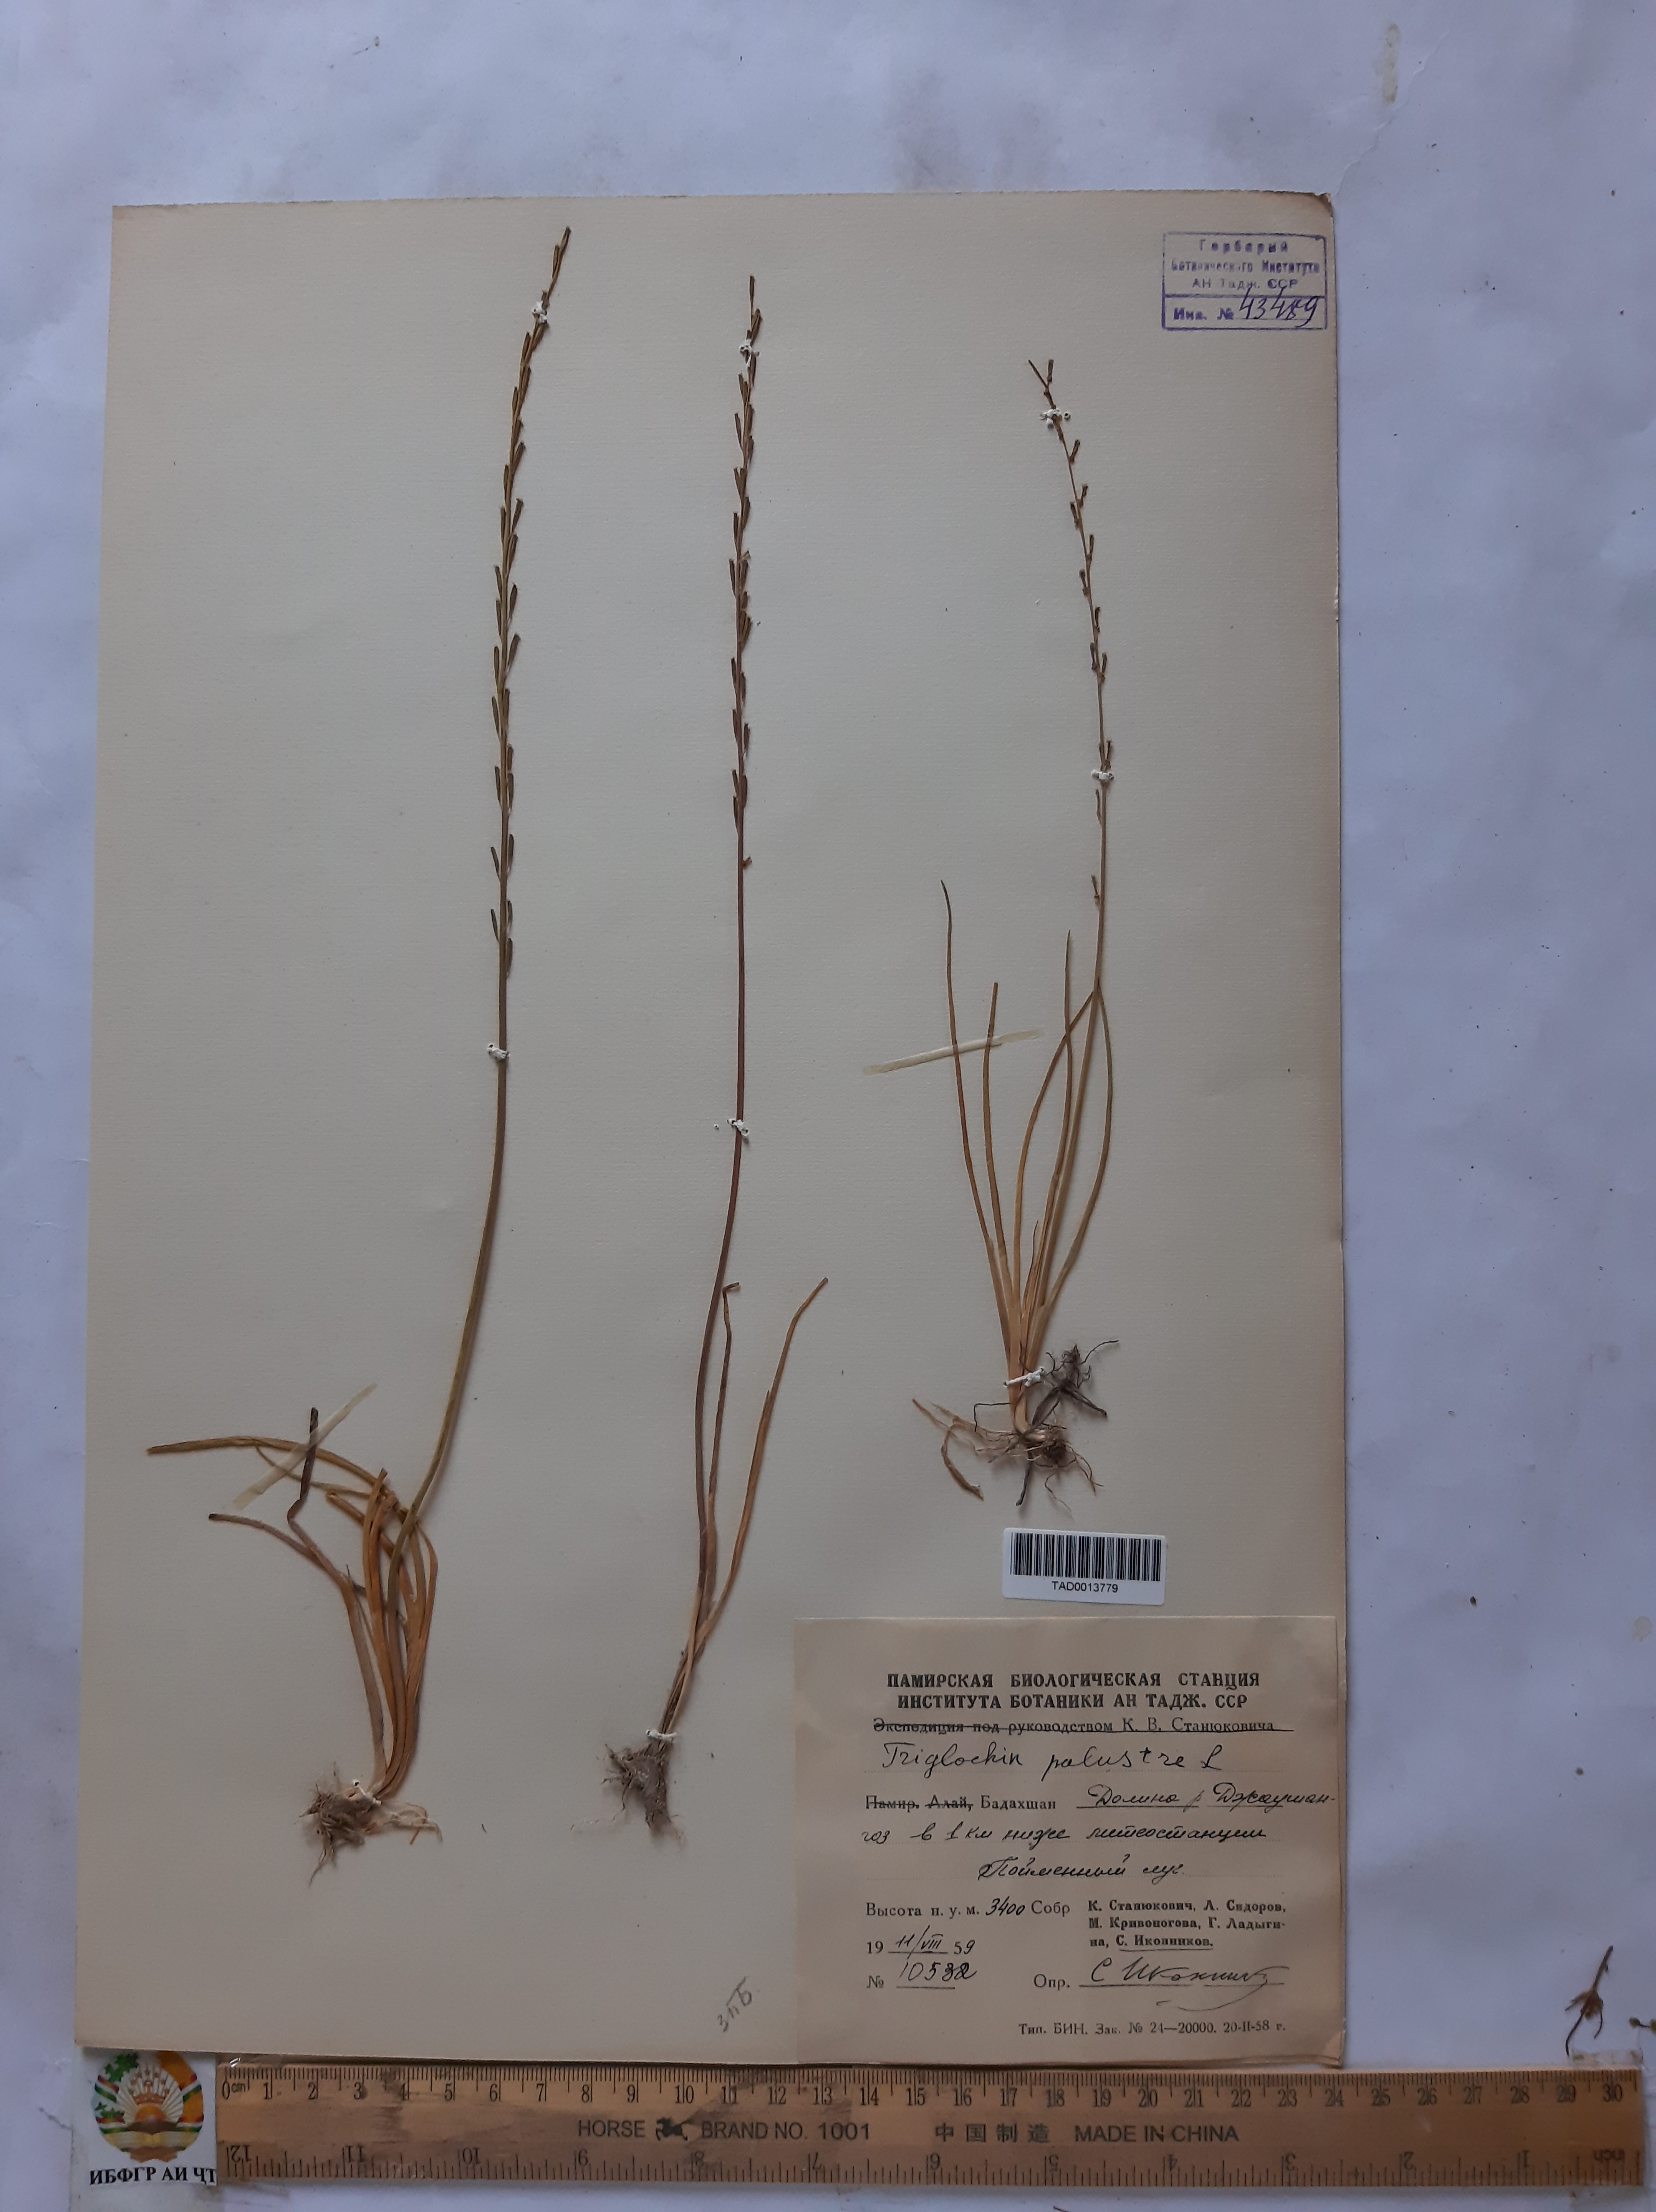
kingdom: Plantae
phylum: Tracheophyta
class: Liliopsida
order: Alismatales
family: Juncaginaceae
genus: Triglochin
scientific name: Triglochin palustris
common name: Marsh arrowgrass
